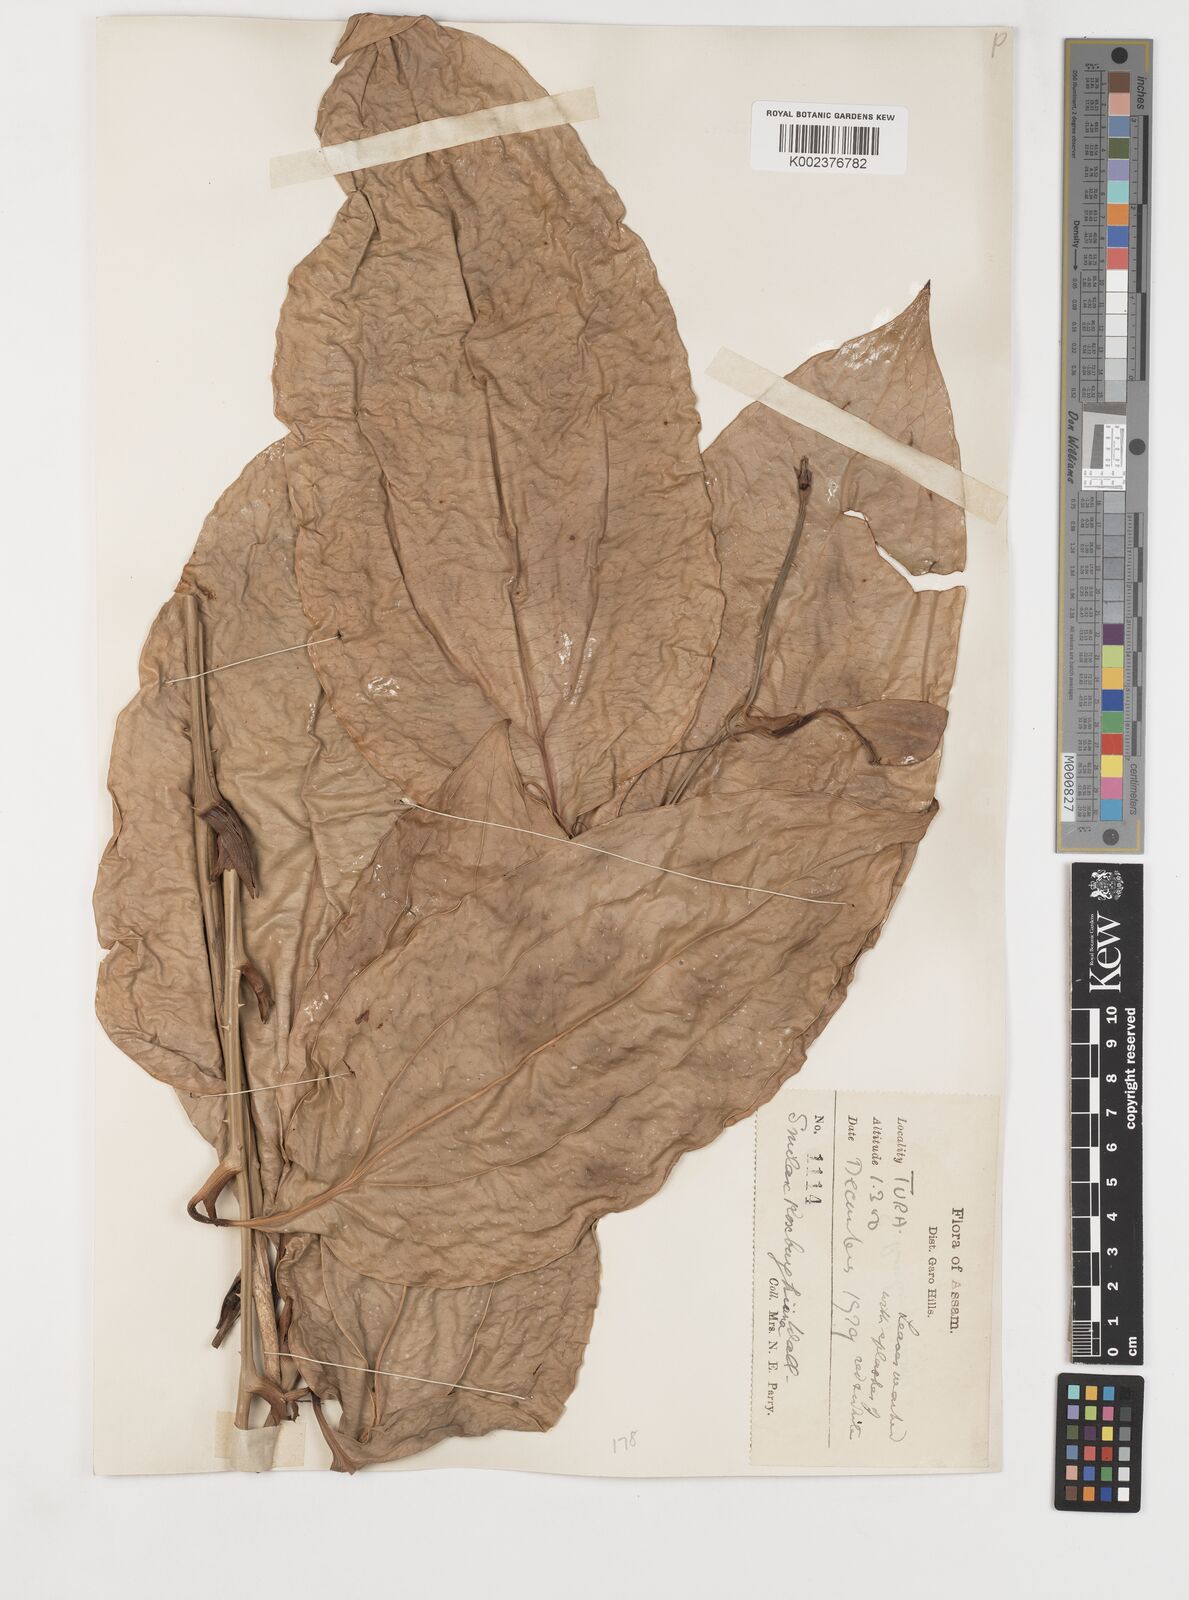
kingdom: Plantae
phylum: Tracheophyta
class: Liliopsida
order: Liliales
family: Smilacaceae
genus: Smilax
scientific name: Smilax roxburghiana
